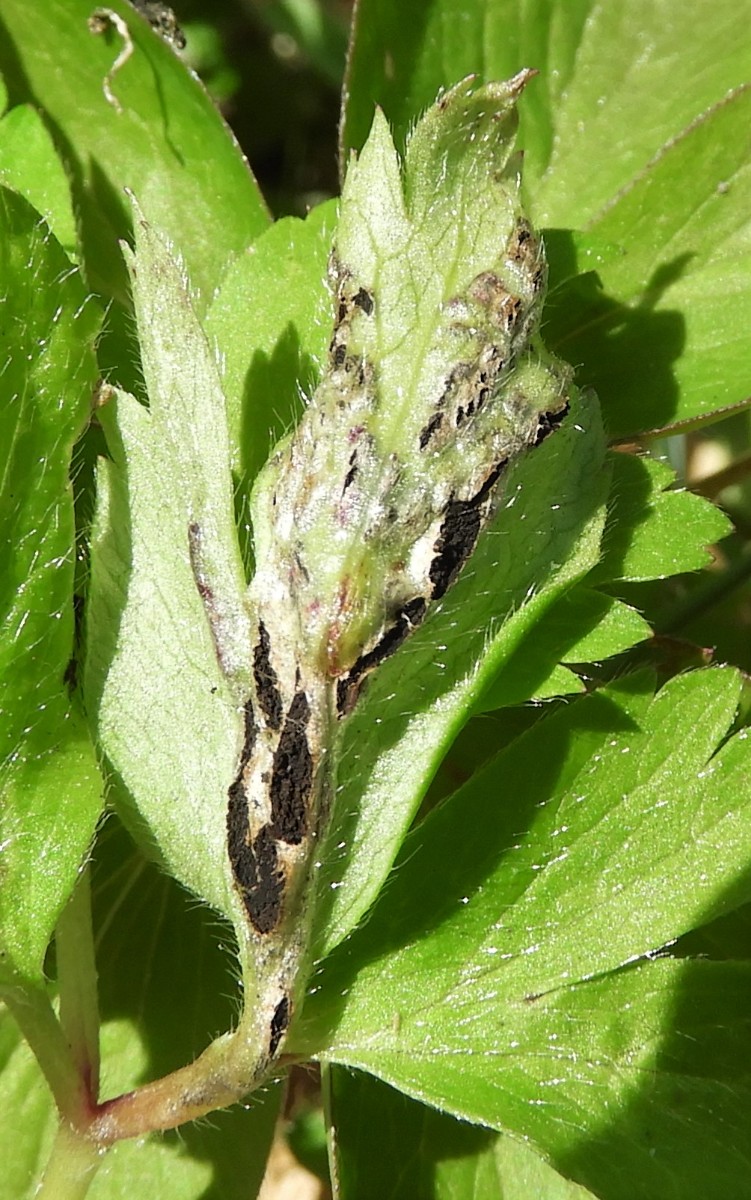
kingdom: Fungi
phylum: Basidiomycota
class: Ustilaginomycetes
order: Urocystidales
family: Urocystidaceae
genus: Urocystis
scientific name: Urocystis anemones
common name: anemone-brand
